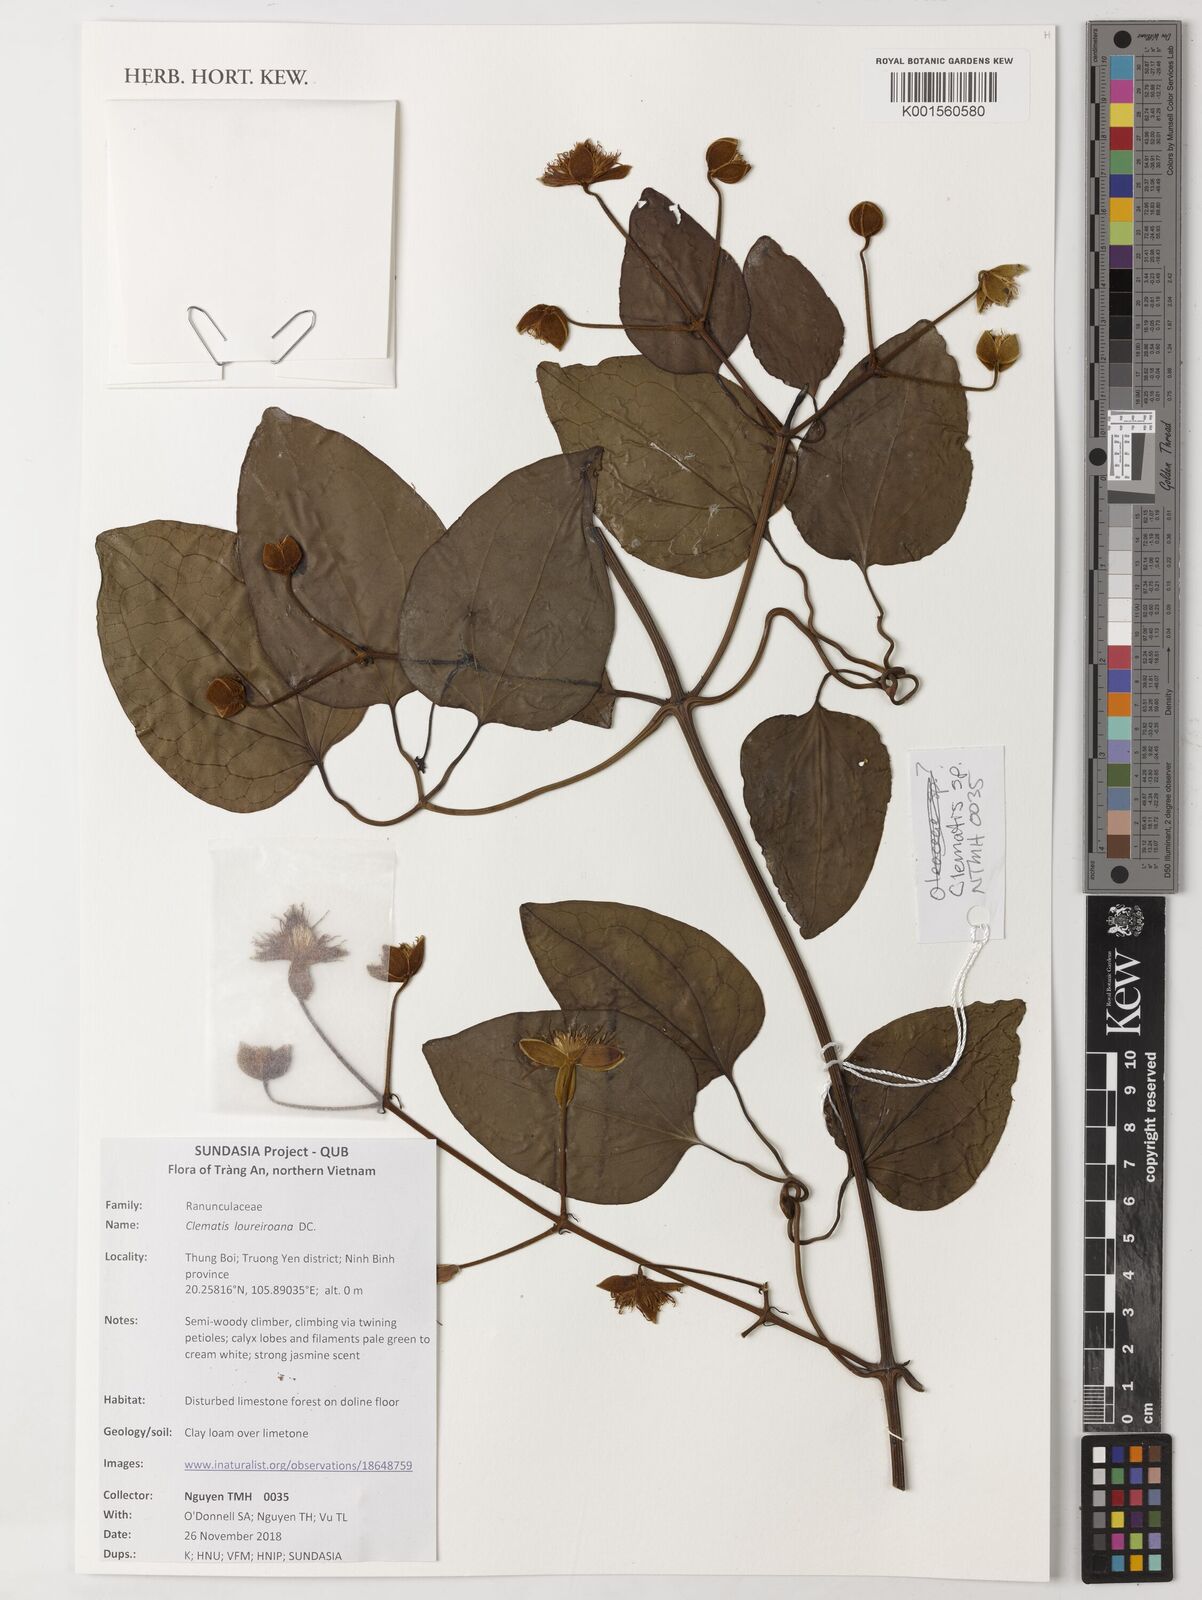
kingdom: Plantae
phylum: Tracheophyta
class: Magnoliopsida
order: Ranunculales
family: Ranunculaceae
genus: Clematis
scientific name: Clematis loureiroana
